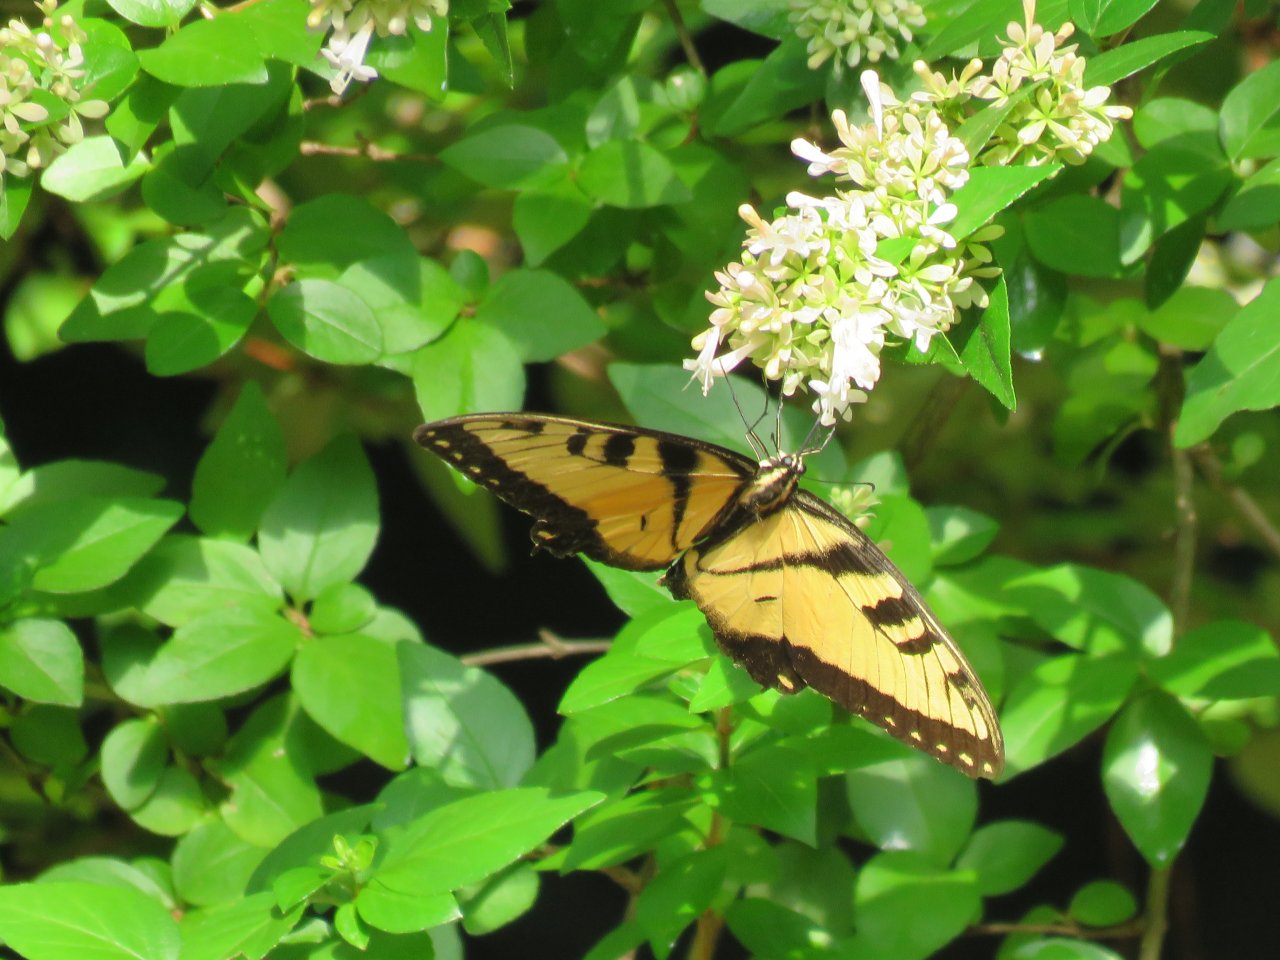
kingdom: Animalia
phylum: Arthropoda
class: Insecta
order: Lepidoptera
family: Papilionidae
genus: Pterourus
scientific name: Pterourus glaucus
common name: Eastern Tiger Swallowtail
